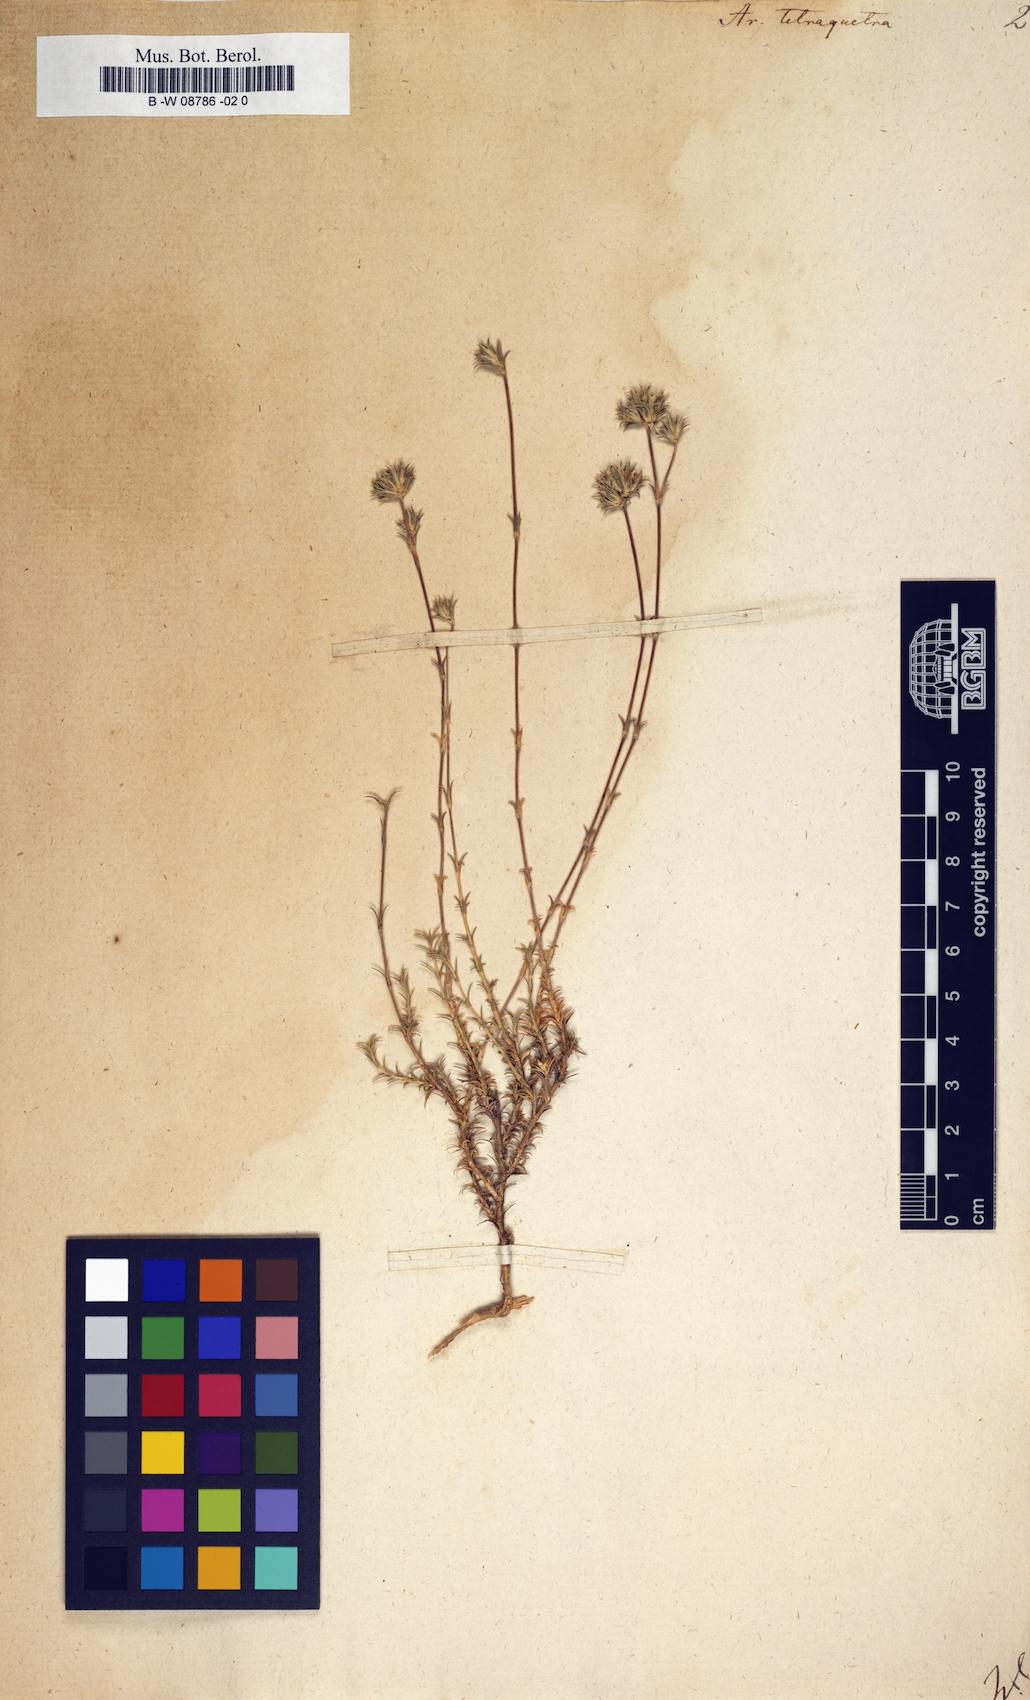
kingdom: Plantae
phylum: Tracheophyta
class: Magnoliopsida
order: Caryophyllales
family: Caryophyllaceae
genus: Arenaria
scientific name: Arenaria tetraquetra
